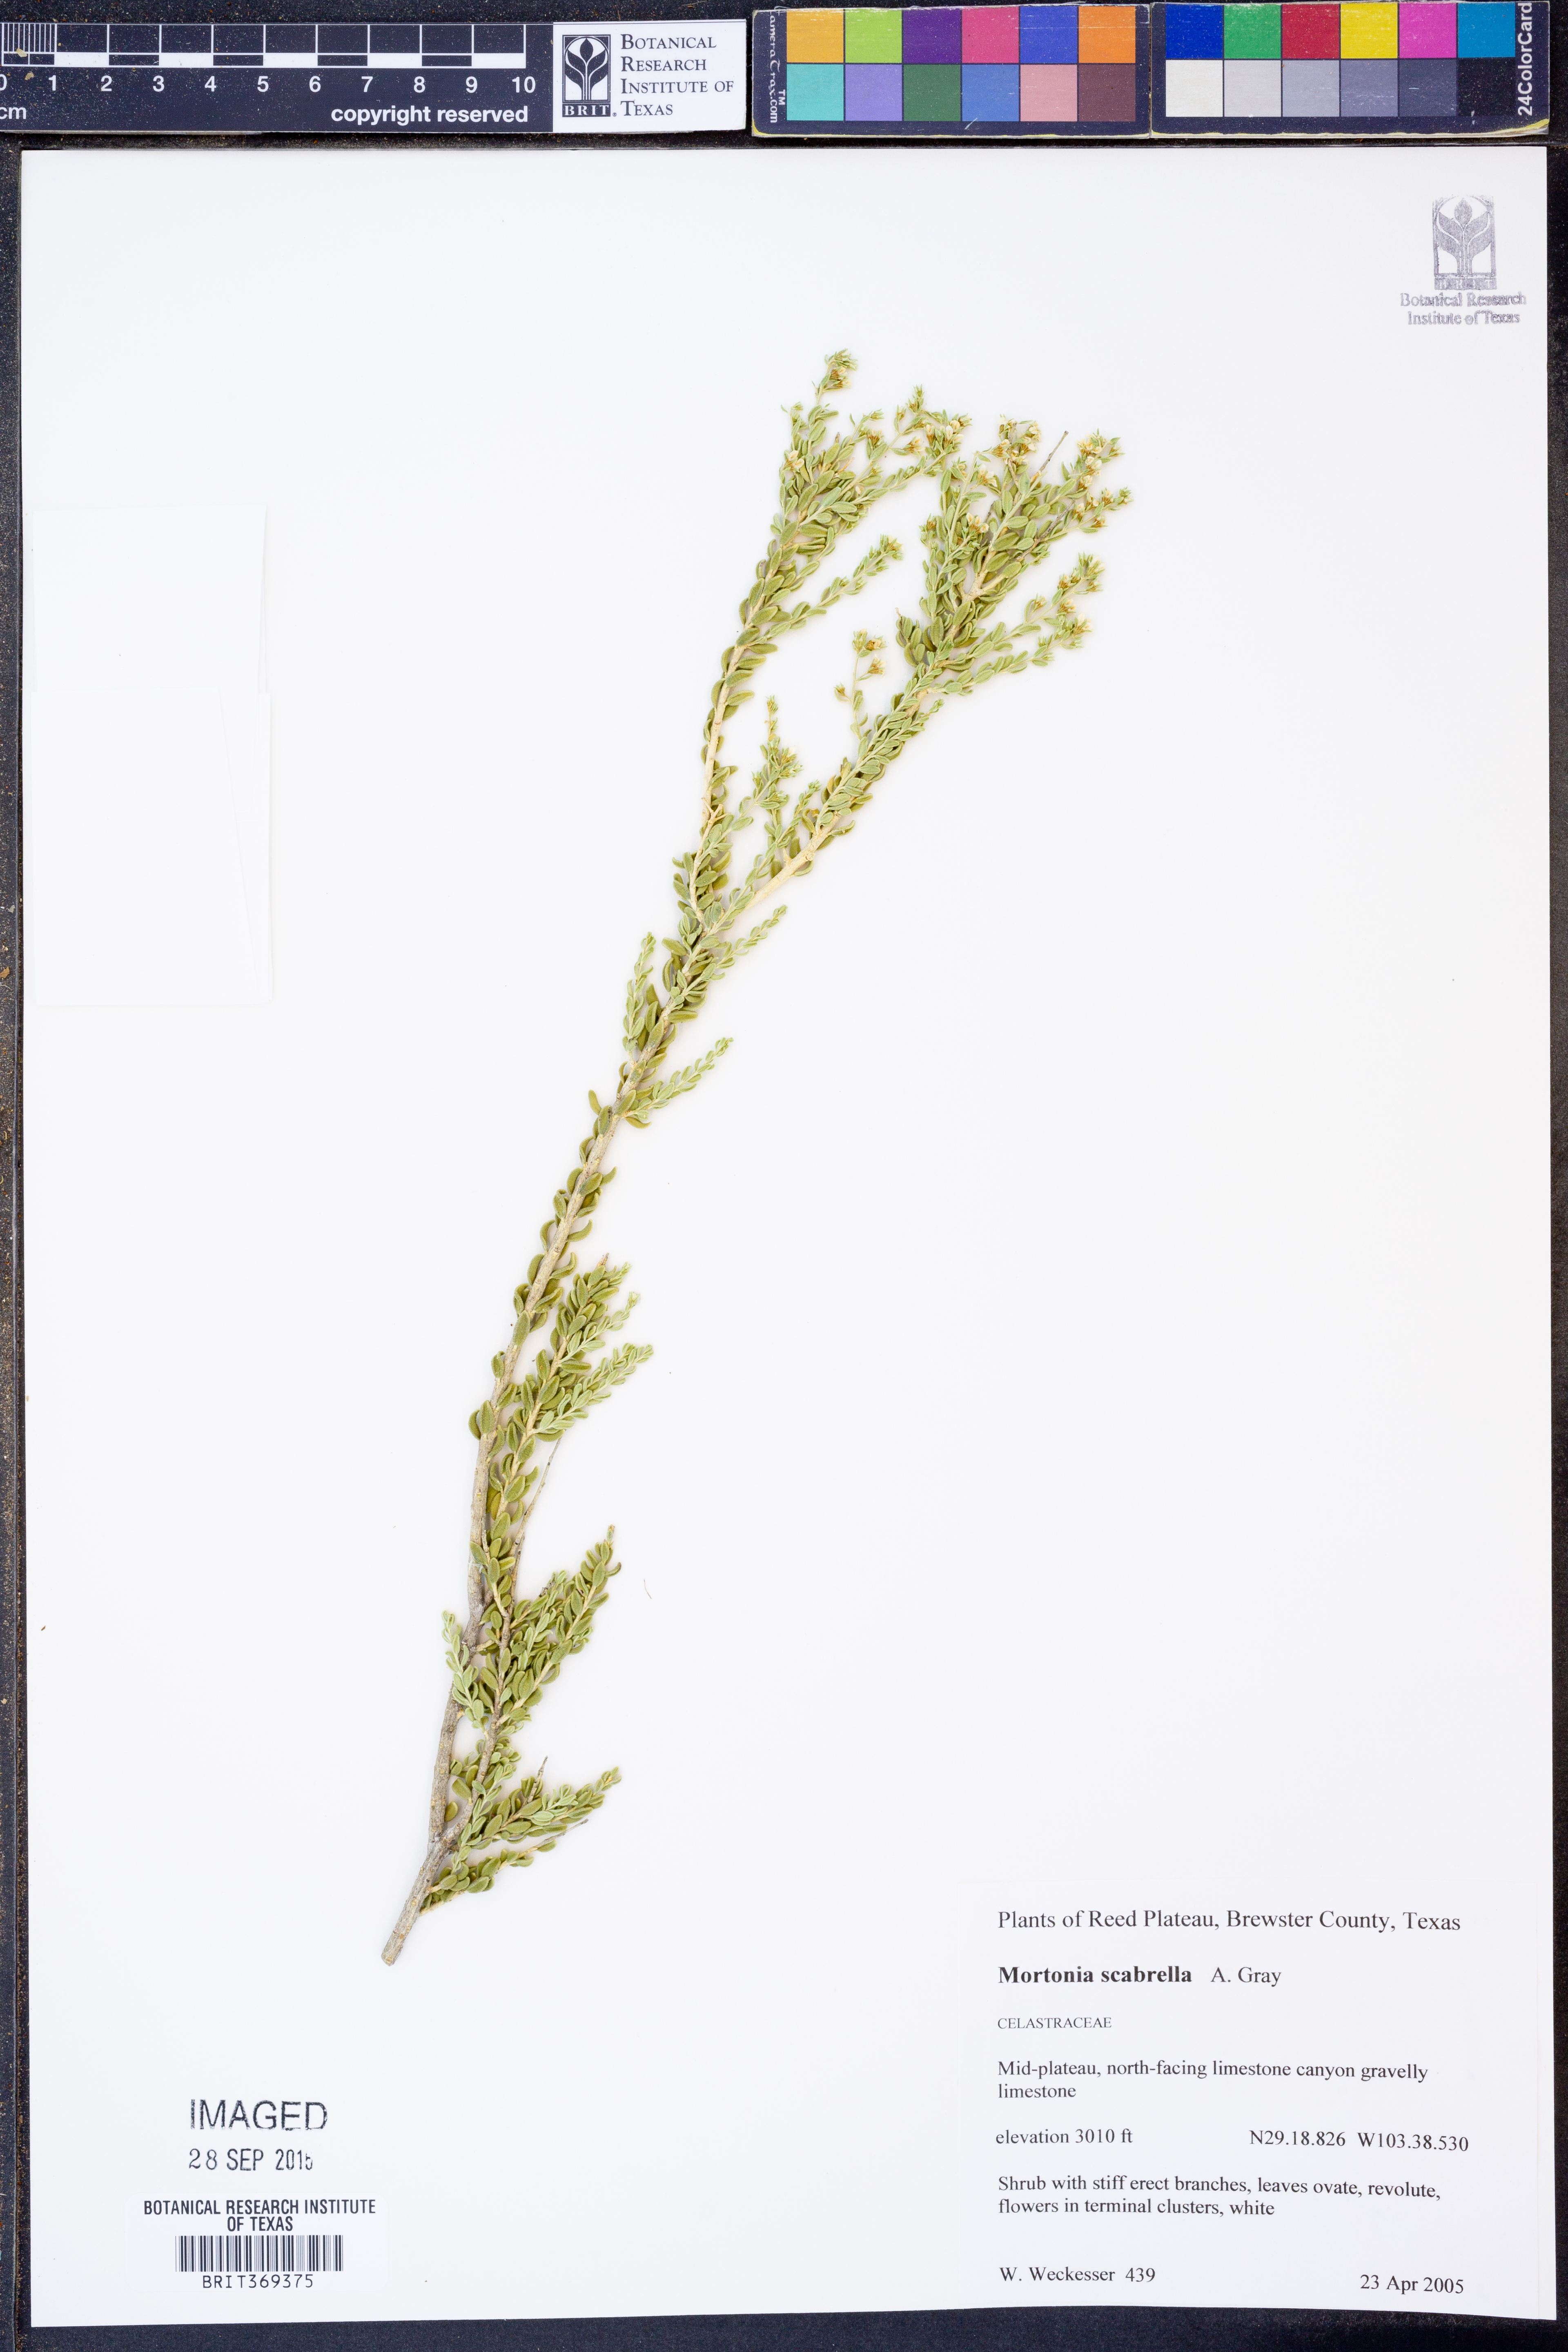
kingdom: Plantae
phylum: Tracheophyta
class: Magnoliopsida
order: Celastrales
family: Celastraceae
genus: Mortonia
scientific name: Mortonia scabrella
